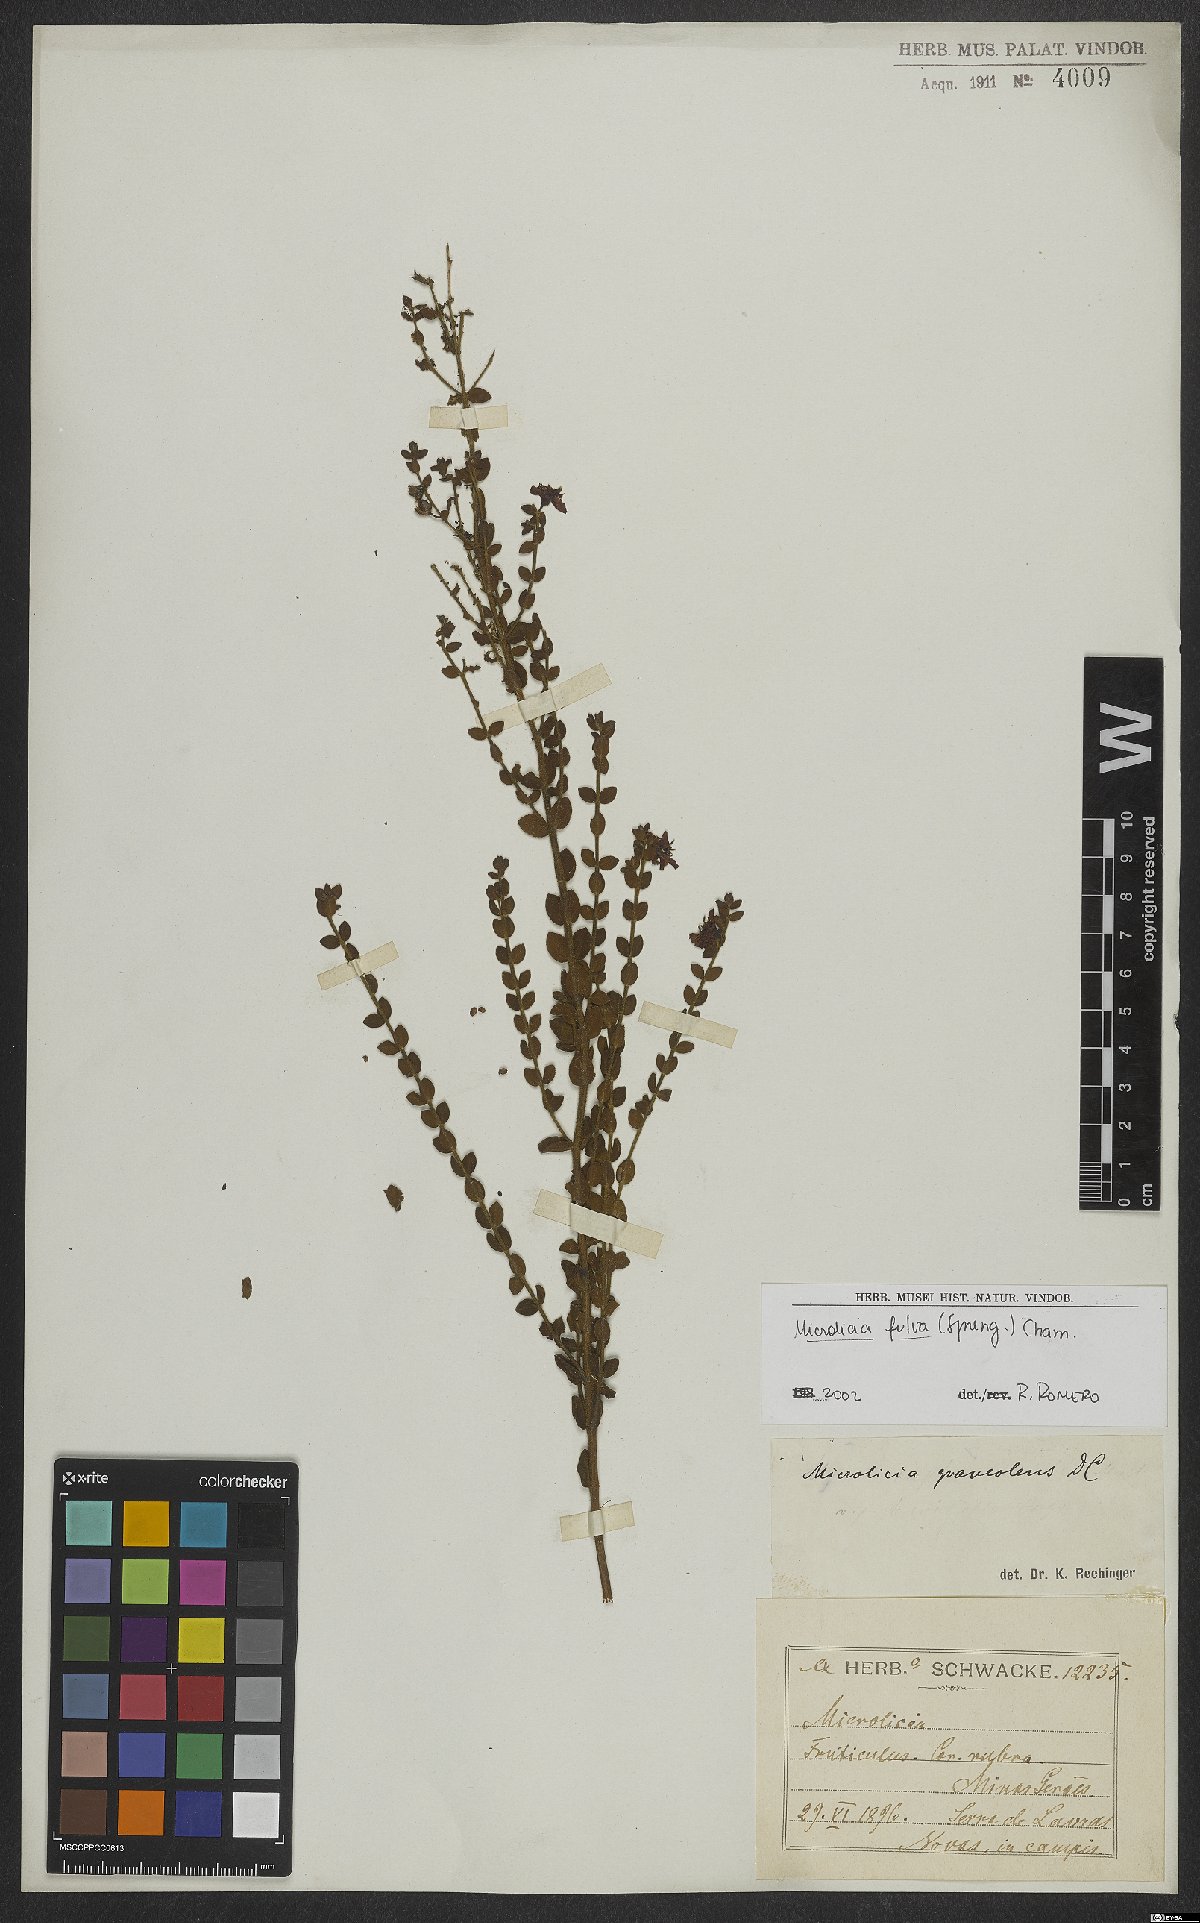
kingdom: Plantae
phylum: Tracheophyta
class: Magnoliopsida
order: Myrtales
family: Melastomataceae
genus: Microlicia
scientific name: Microlicia fulva
